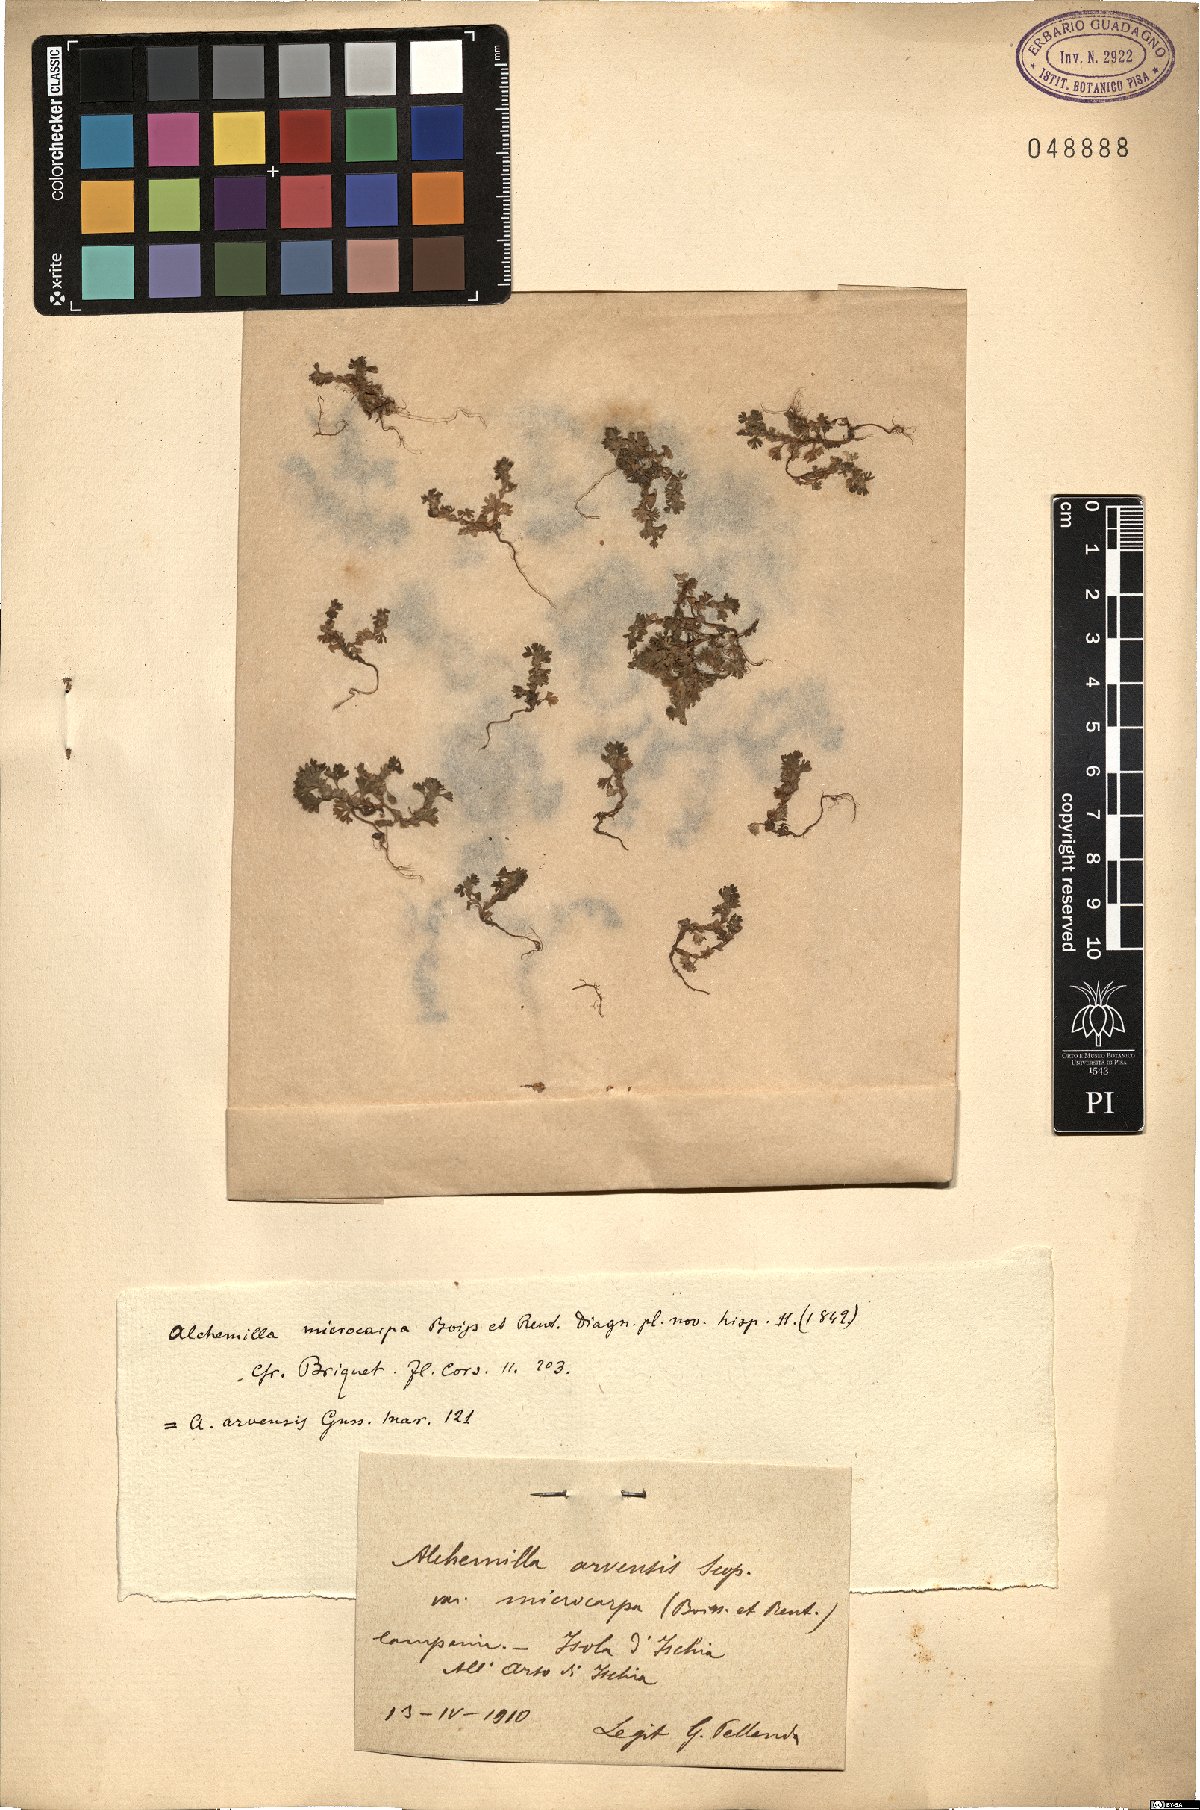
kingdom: Plantae
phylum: Tracheophyta
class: Magnoliopsida
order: Rosales
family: Rosaceae
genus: Aphanes
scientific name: Aphanes australis
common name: Slender parsley-piert
